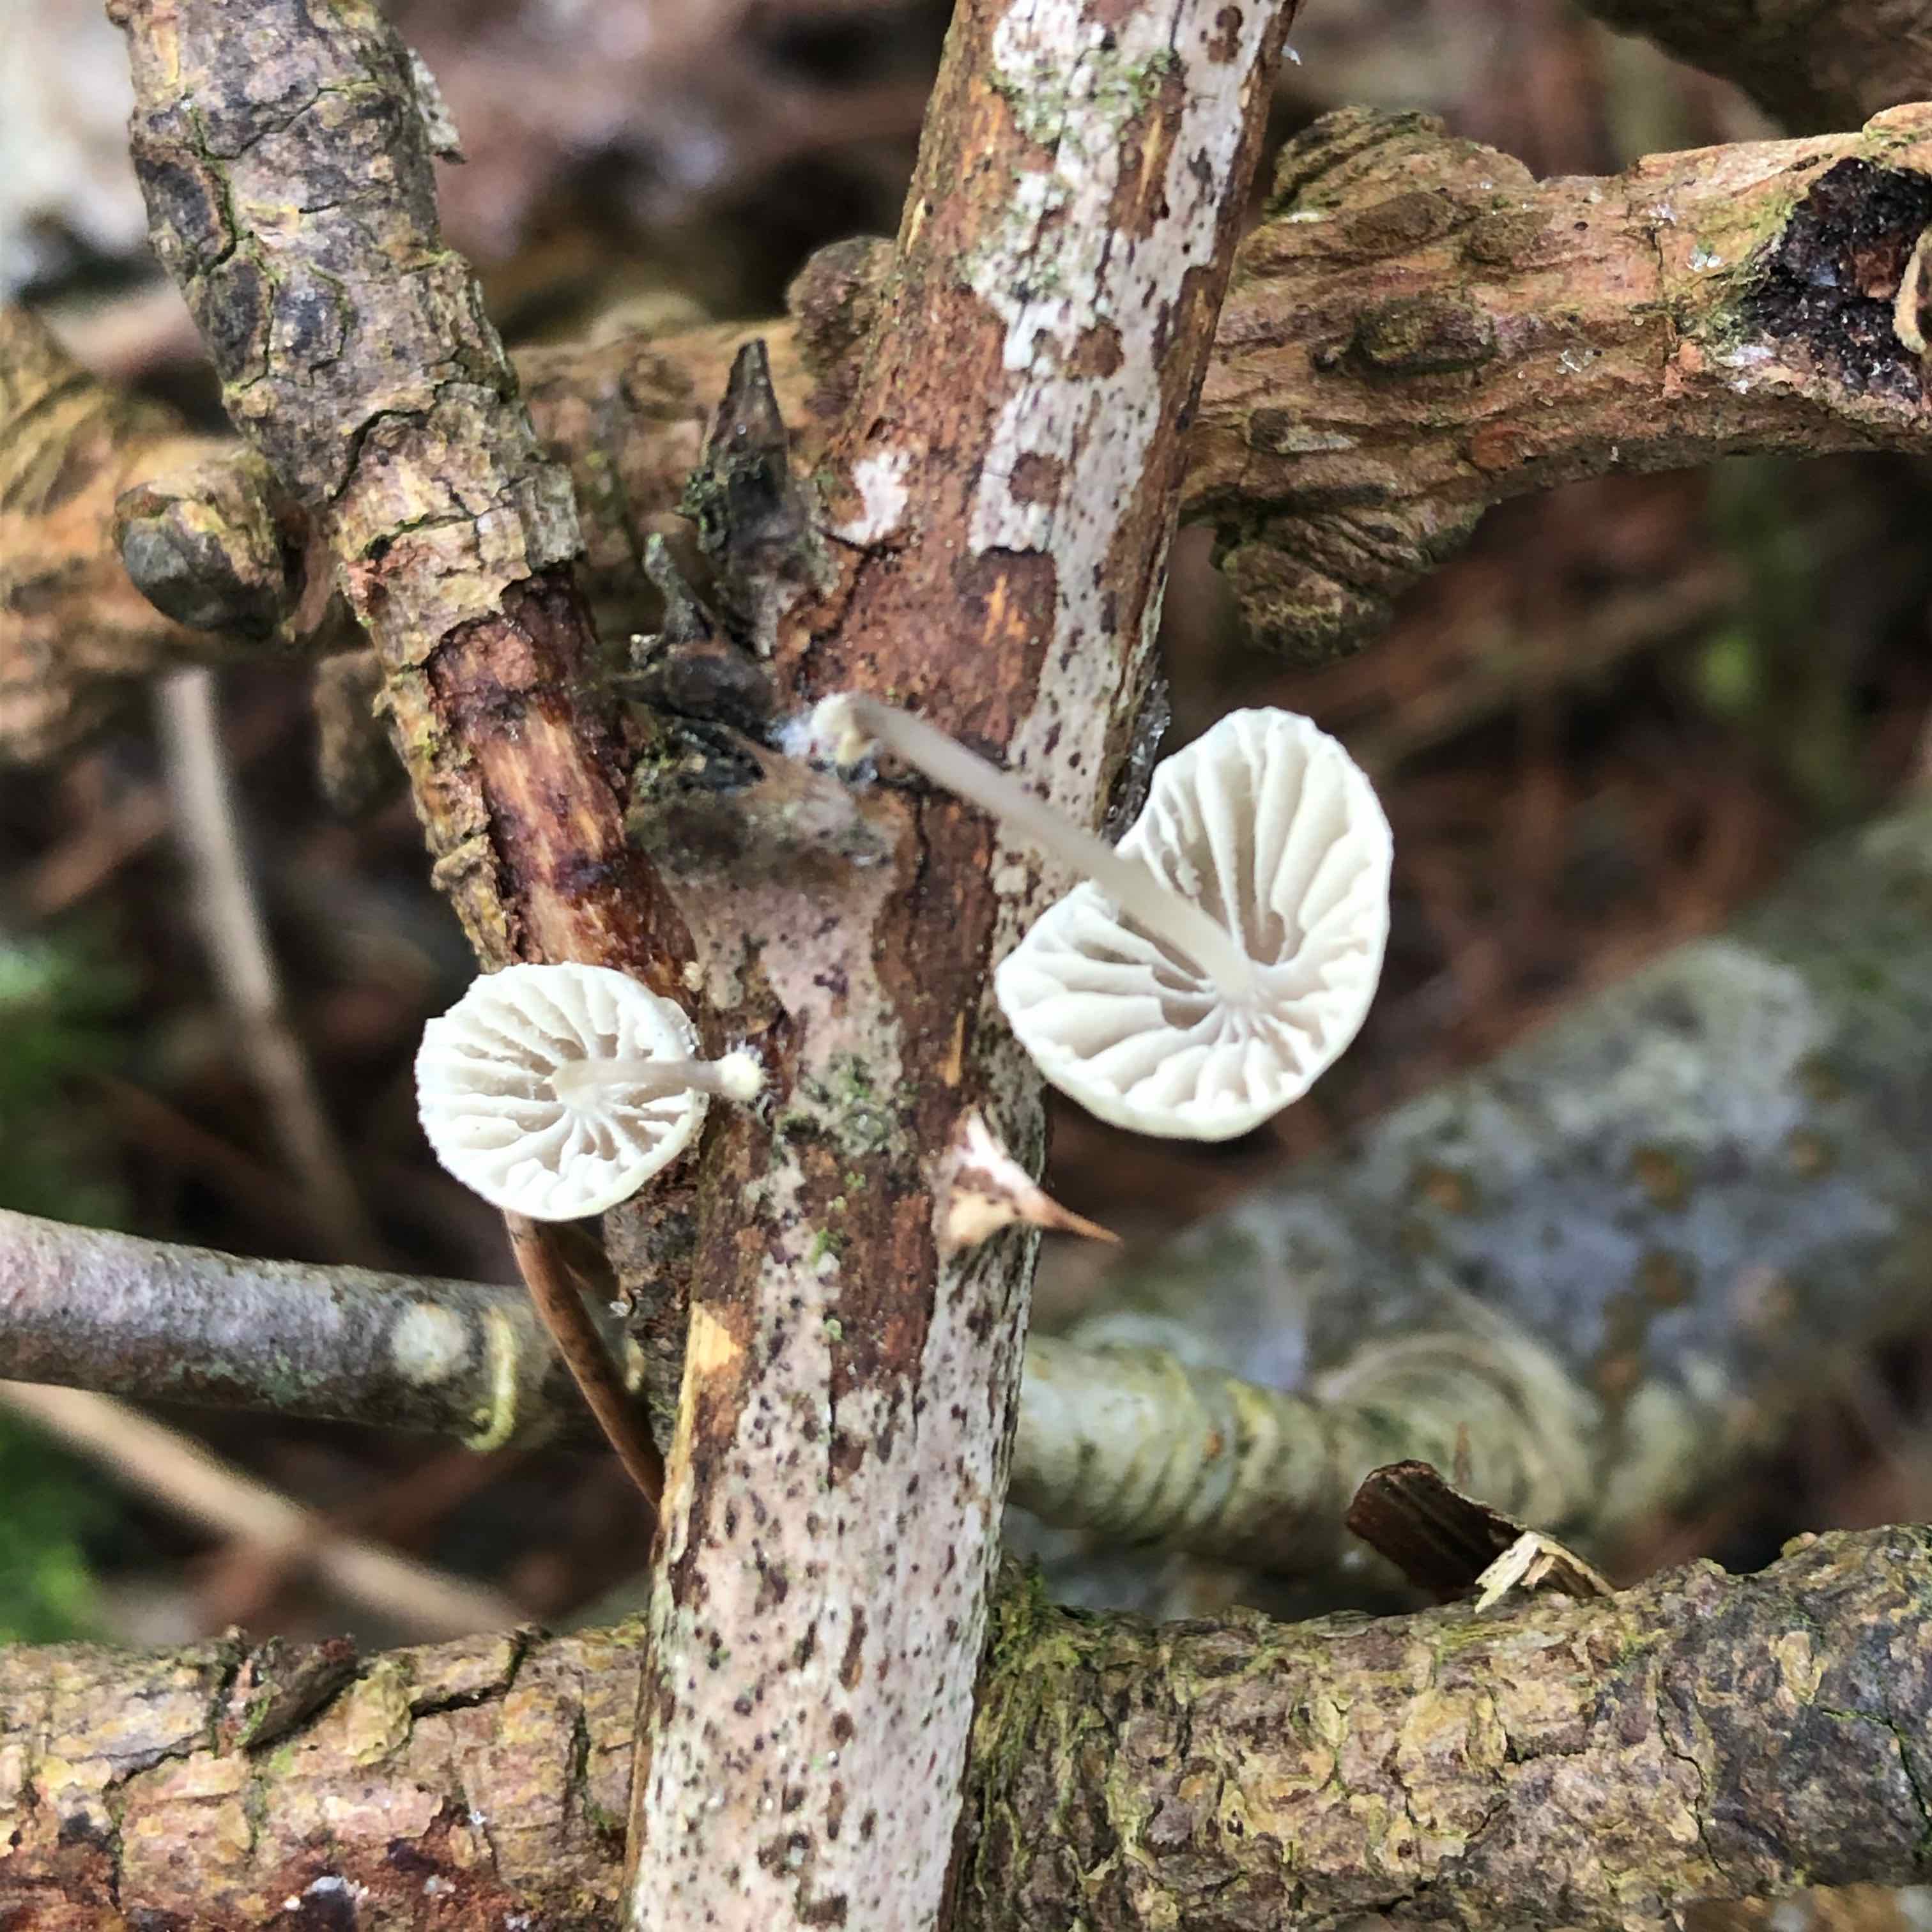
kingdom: Fungi
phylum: Basidiomycota
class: Agaricomycetes
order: Agaricales
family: Mycenaceae
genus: Mycena
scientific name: Mycena arcangeliana
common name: oliven-huesvamp
